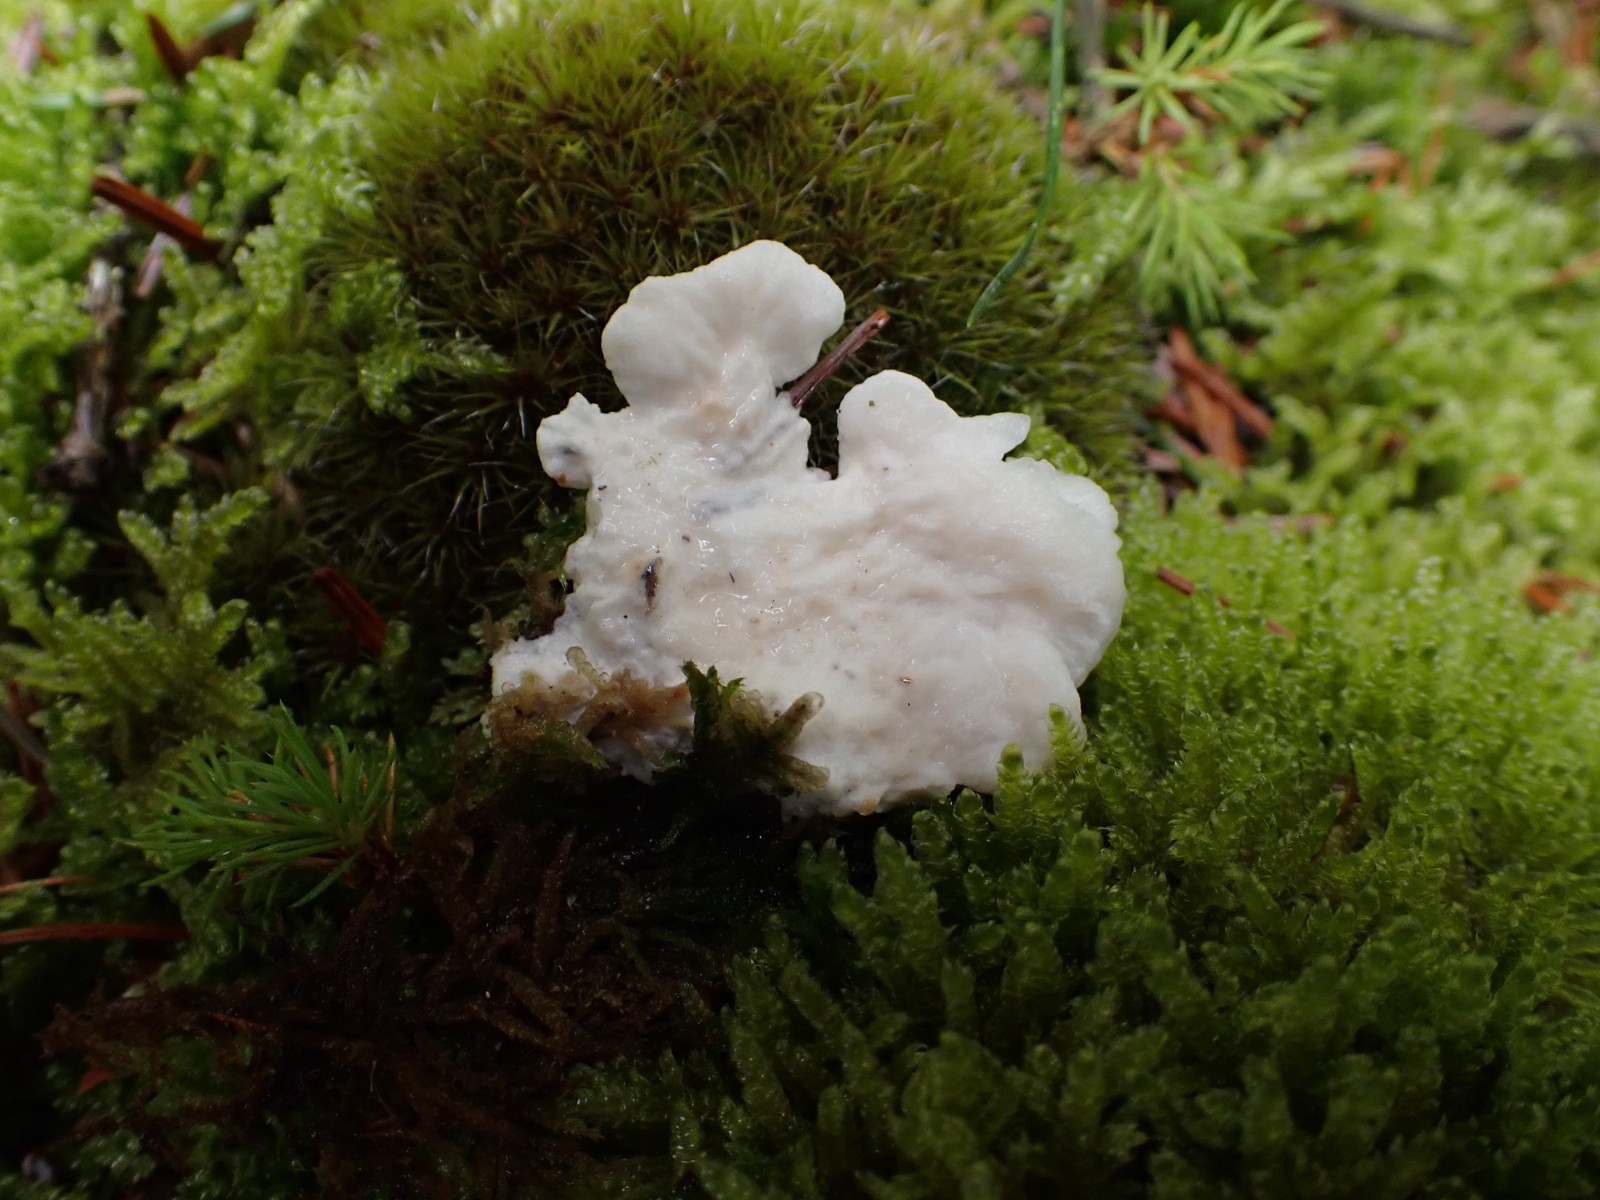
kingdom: Fungi
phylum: Basidiomycota
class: Agaricomycetes
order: Polyporales
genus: Amaropostia
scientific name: Amaropostia stiptica
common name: bitter kødporesvamp
